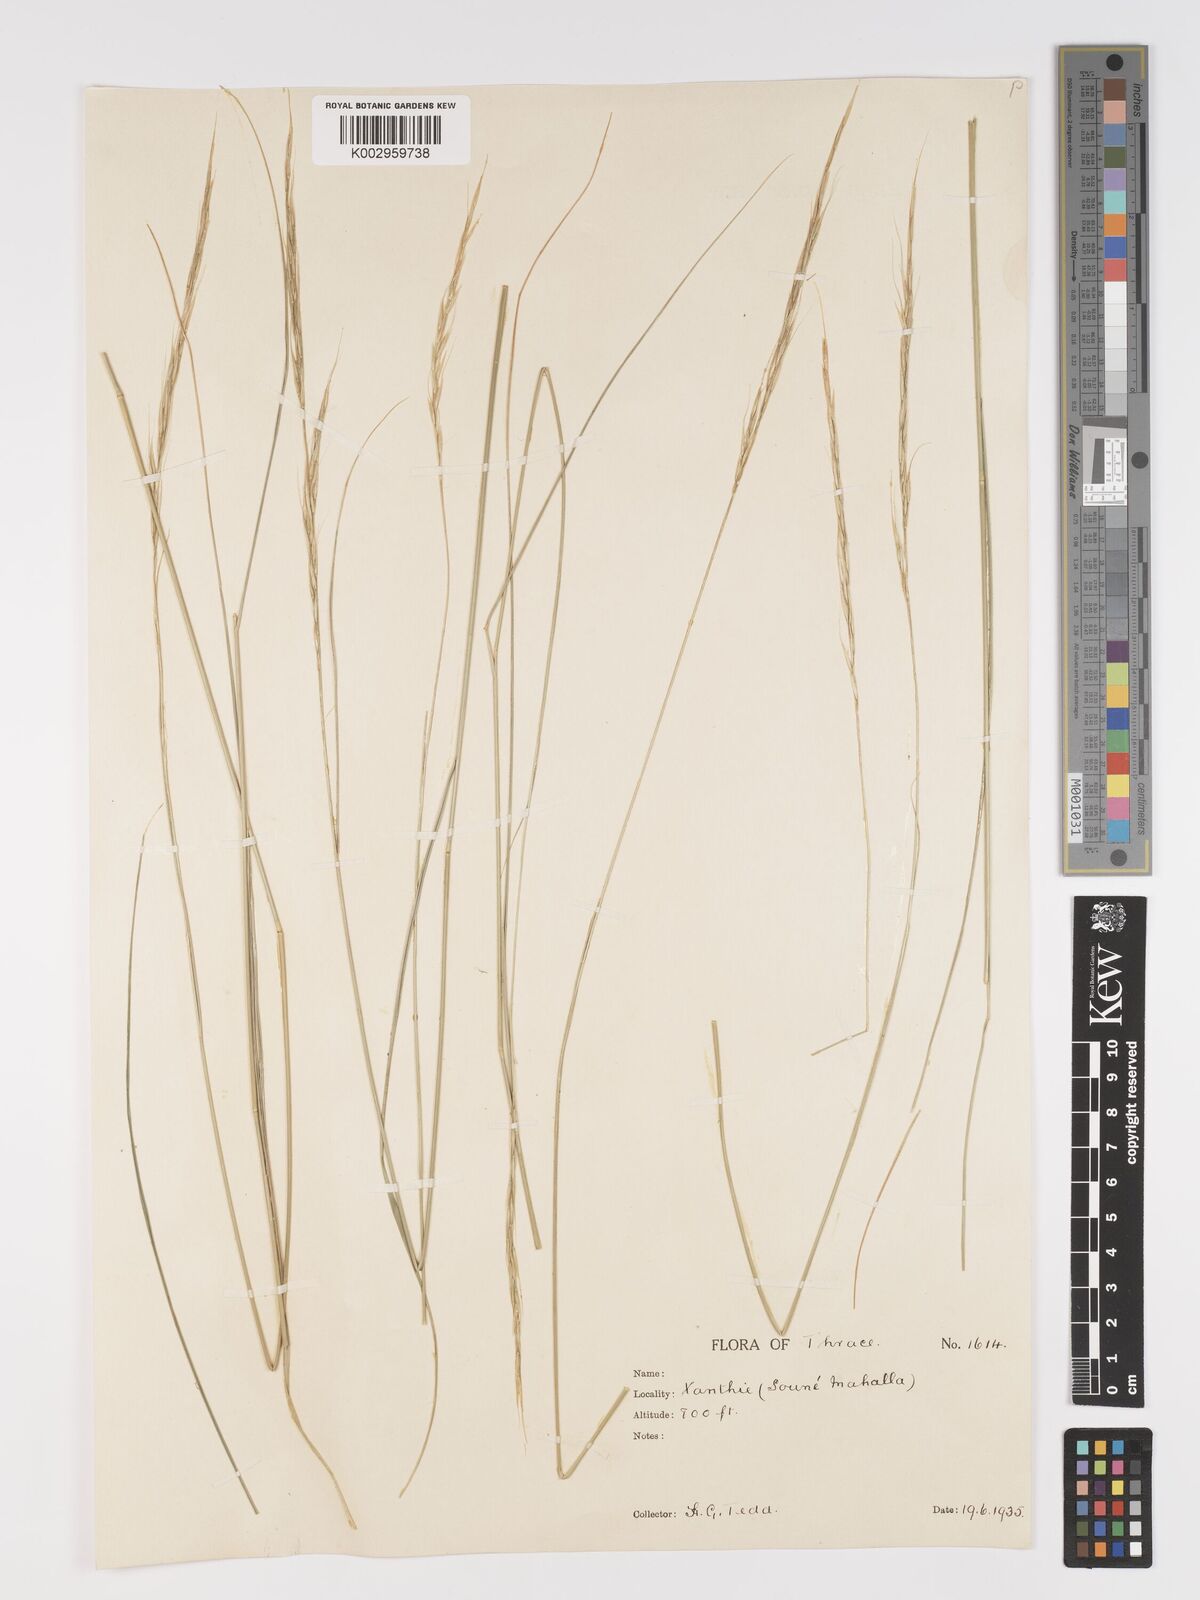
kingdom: Plantae
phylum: Tracheophyta
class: Liliopsida
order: Poales
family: Poaceae
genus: Achnatherum
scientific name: Achnatherum bromoides
